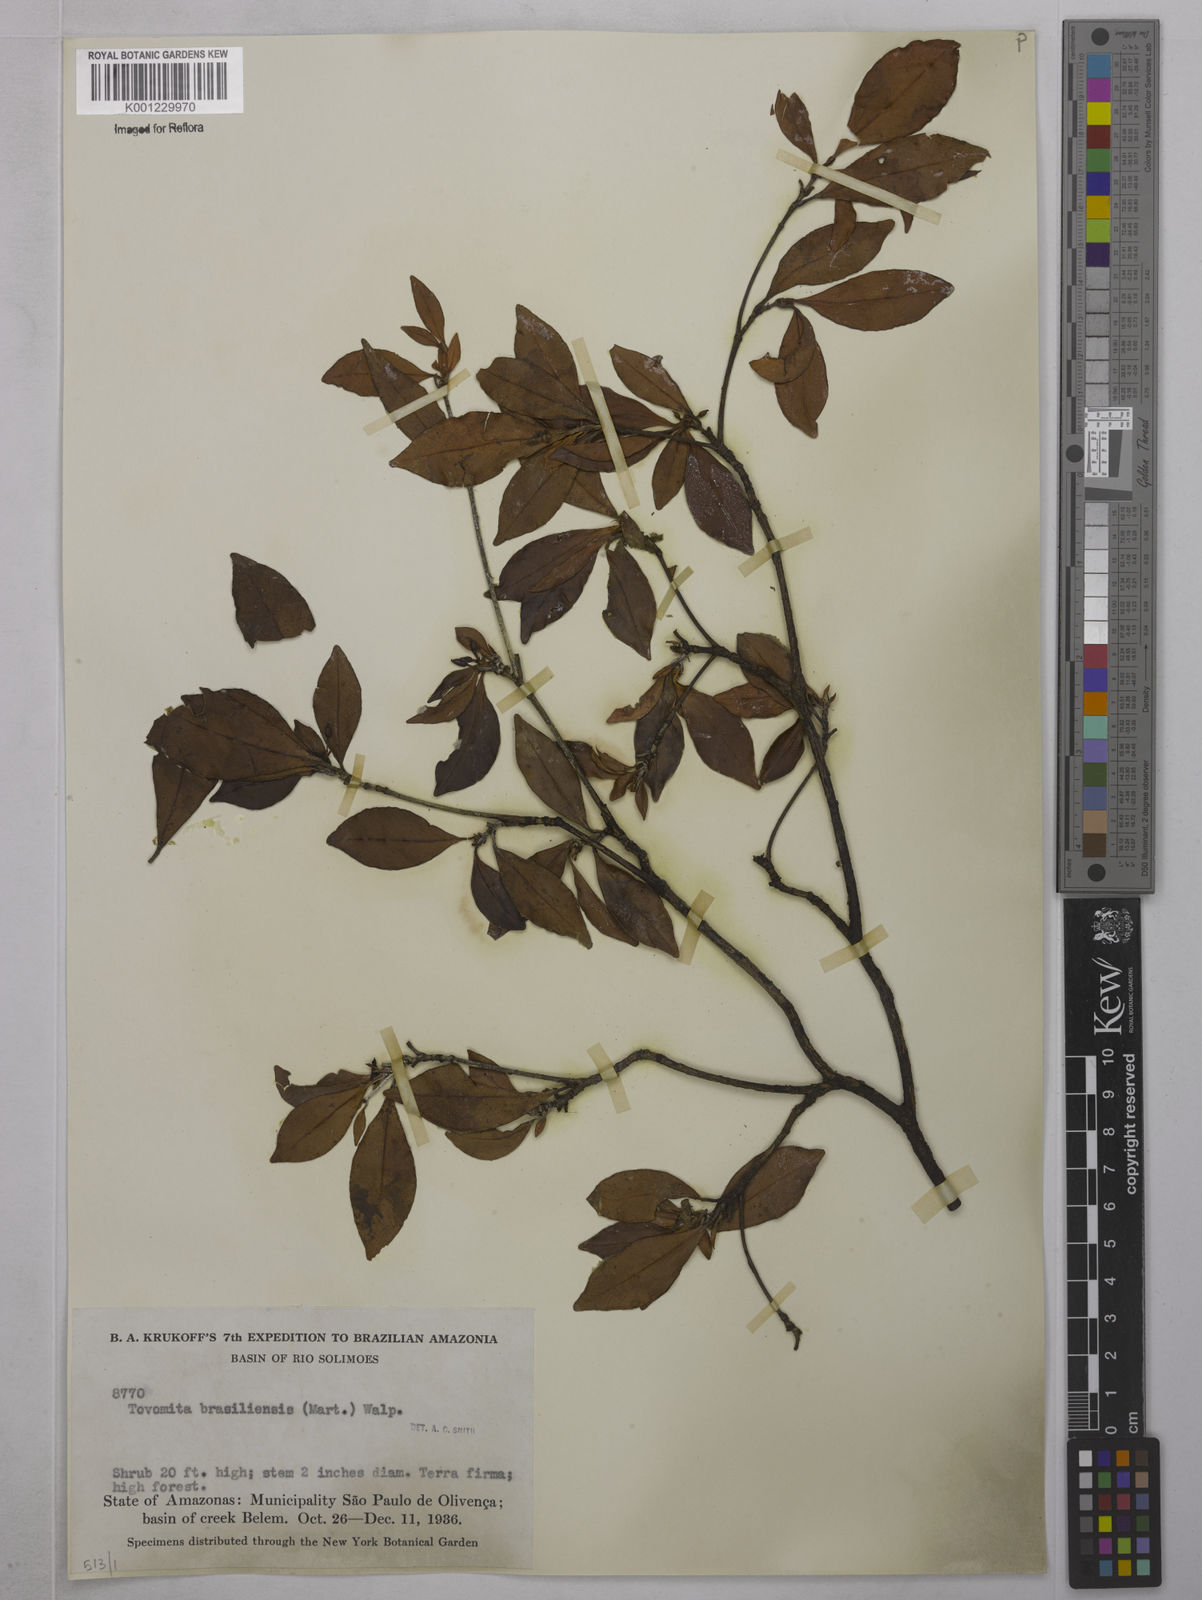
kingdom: Plantae
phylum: Tracheophyta
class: Magnoliopsida
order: Malpighiales
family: Clusiaceae
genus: Tovomita
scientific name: Tovomita
